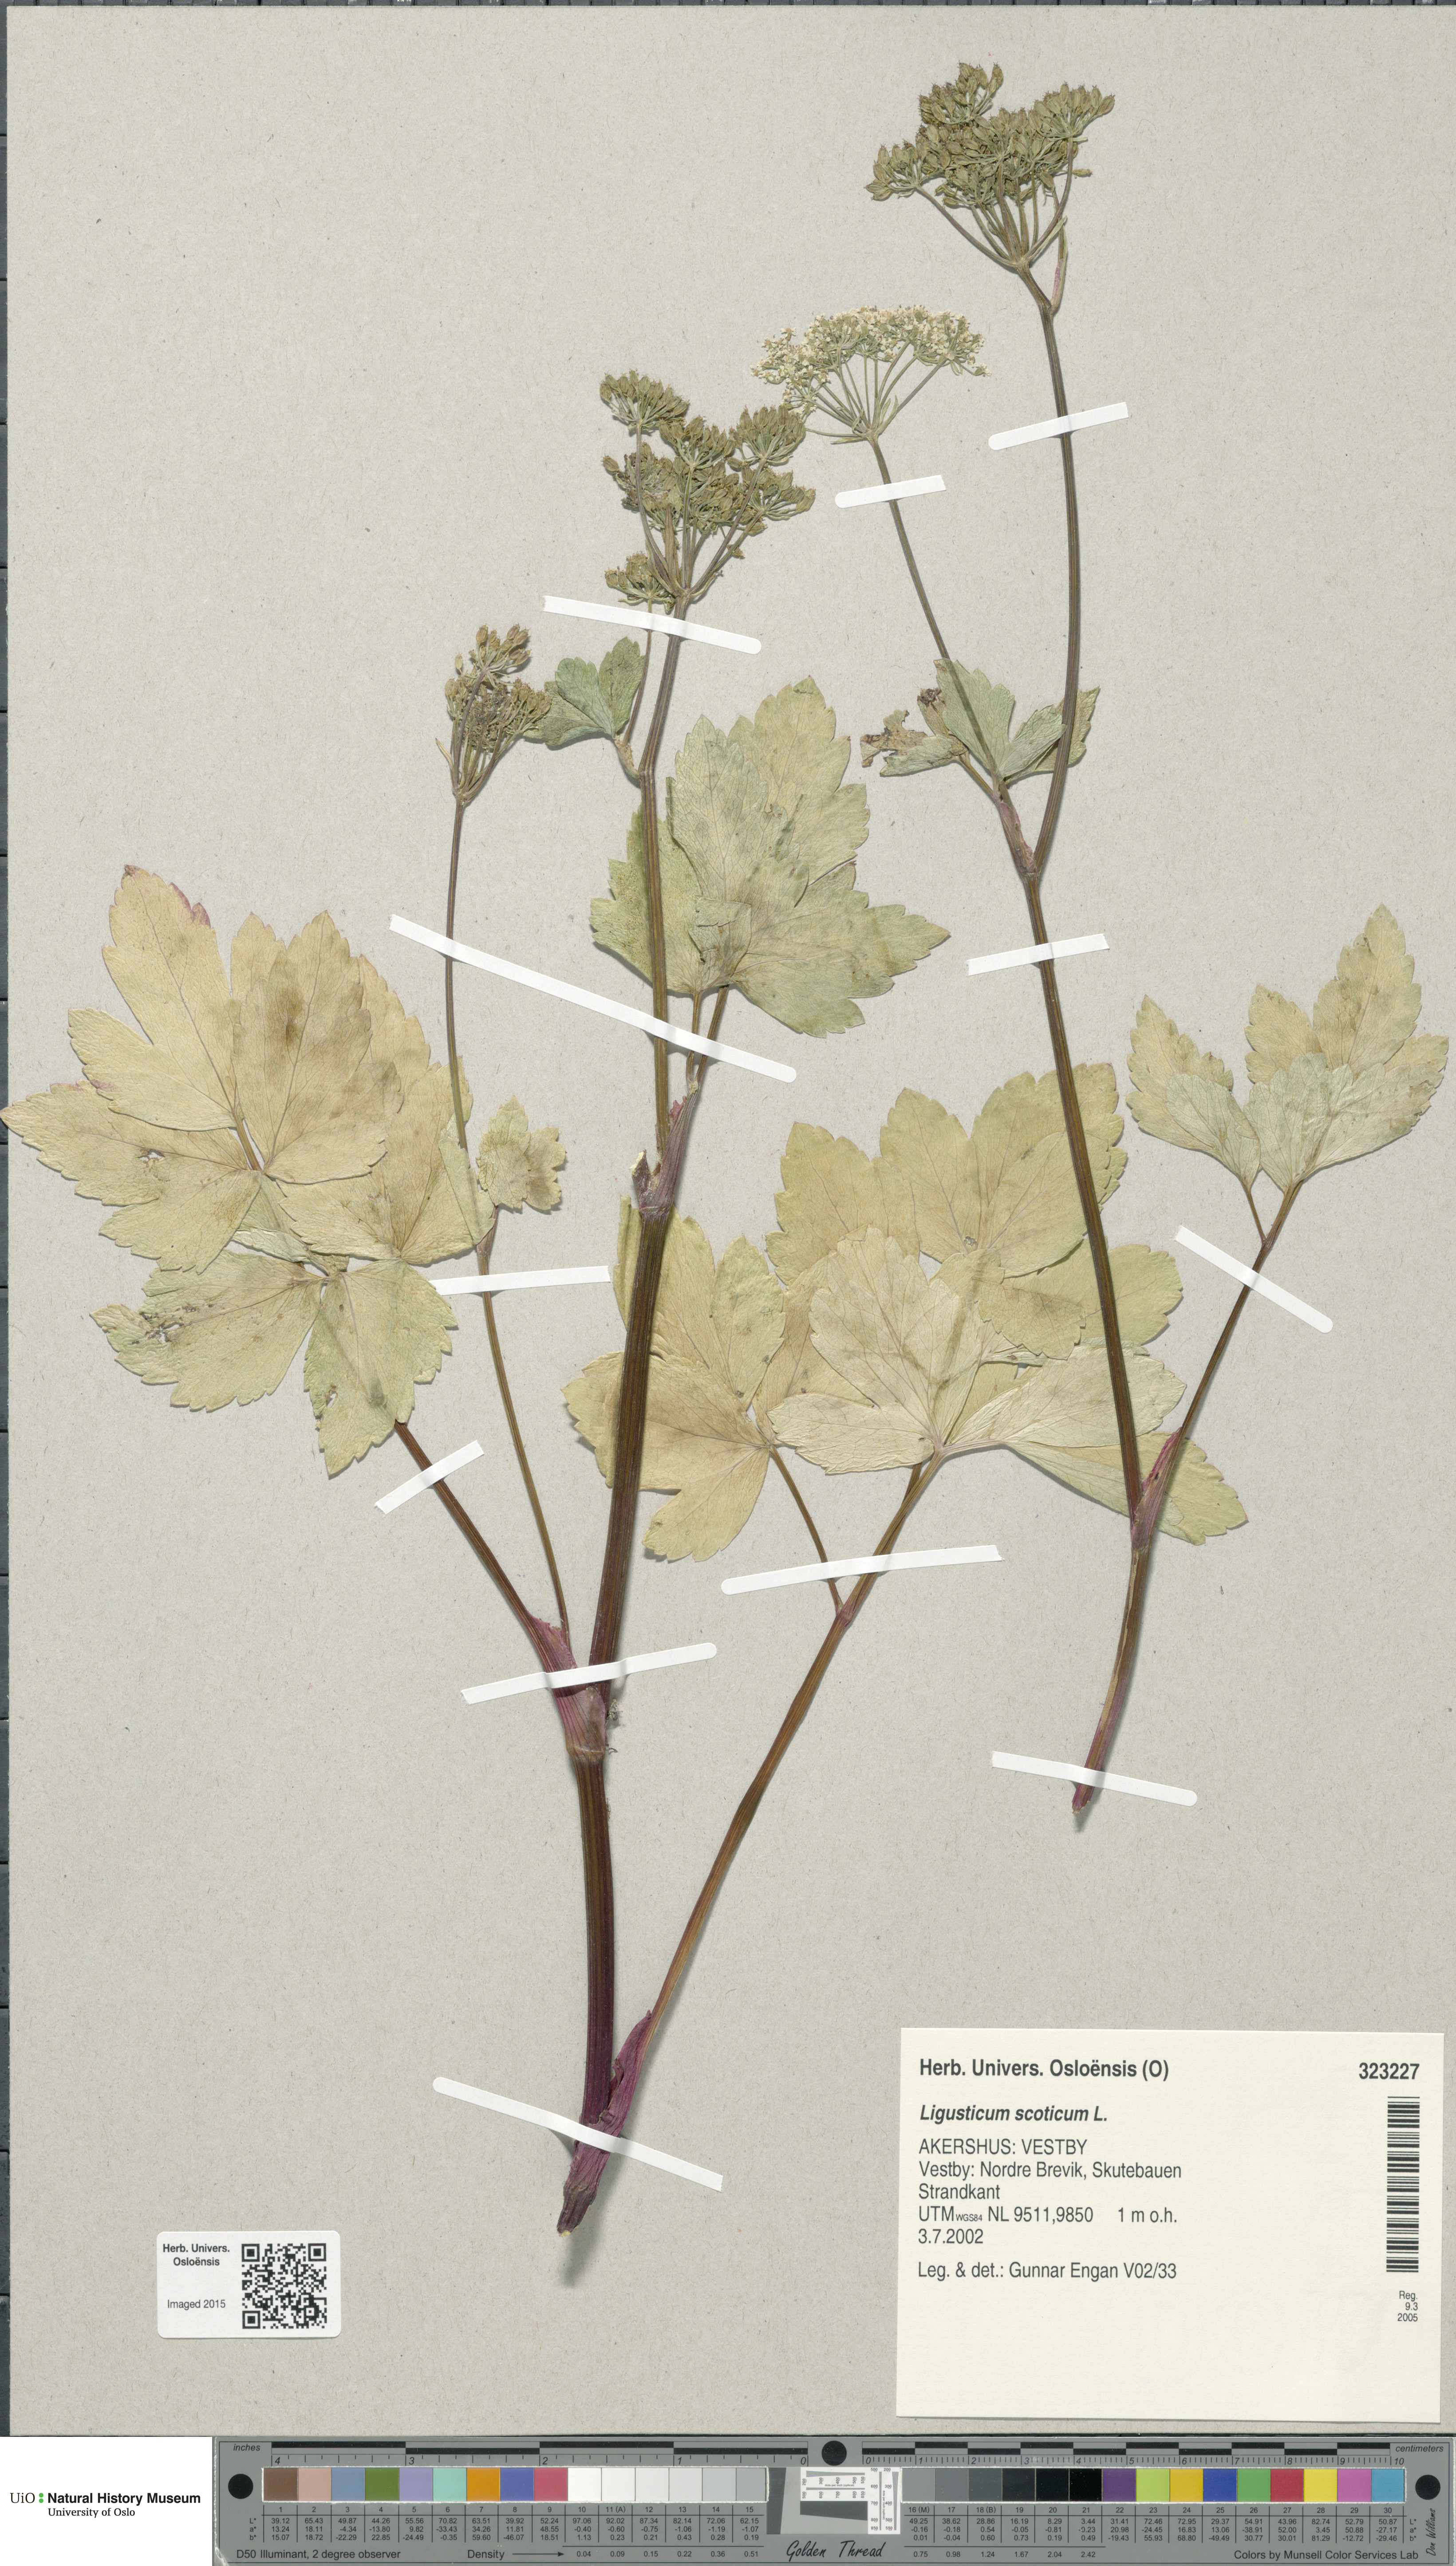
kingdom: Plantae
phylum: Tracheophyta
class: Magnoliopsida
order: Apiales
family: Apiaceae
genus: Ligusticum
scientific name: Ligusticum scothicum
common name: Beach lovage
